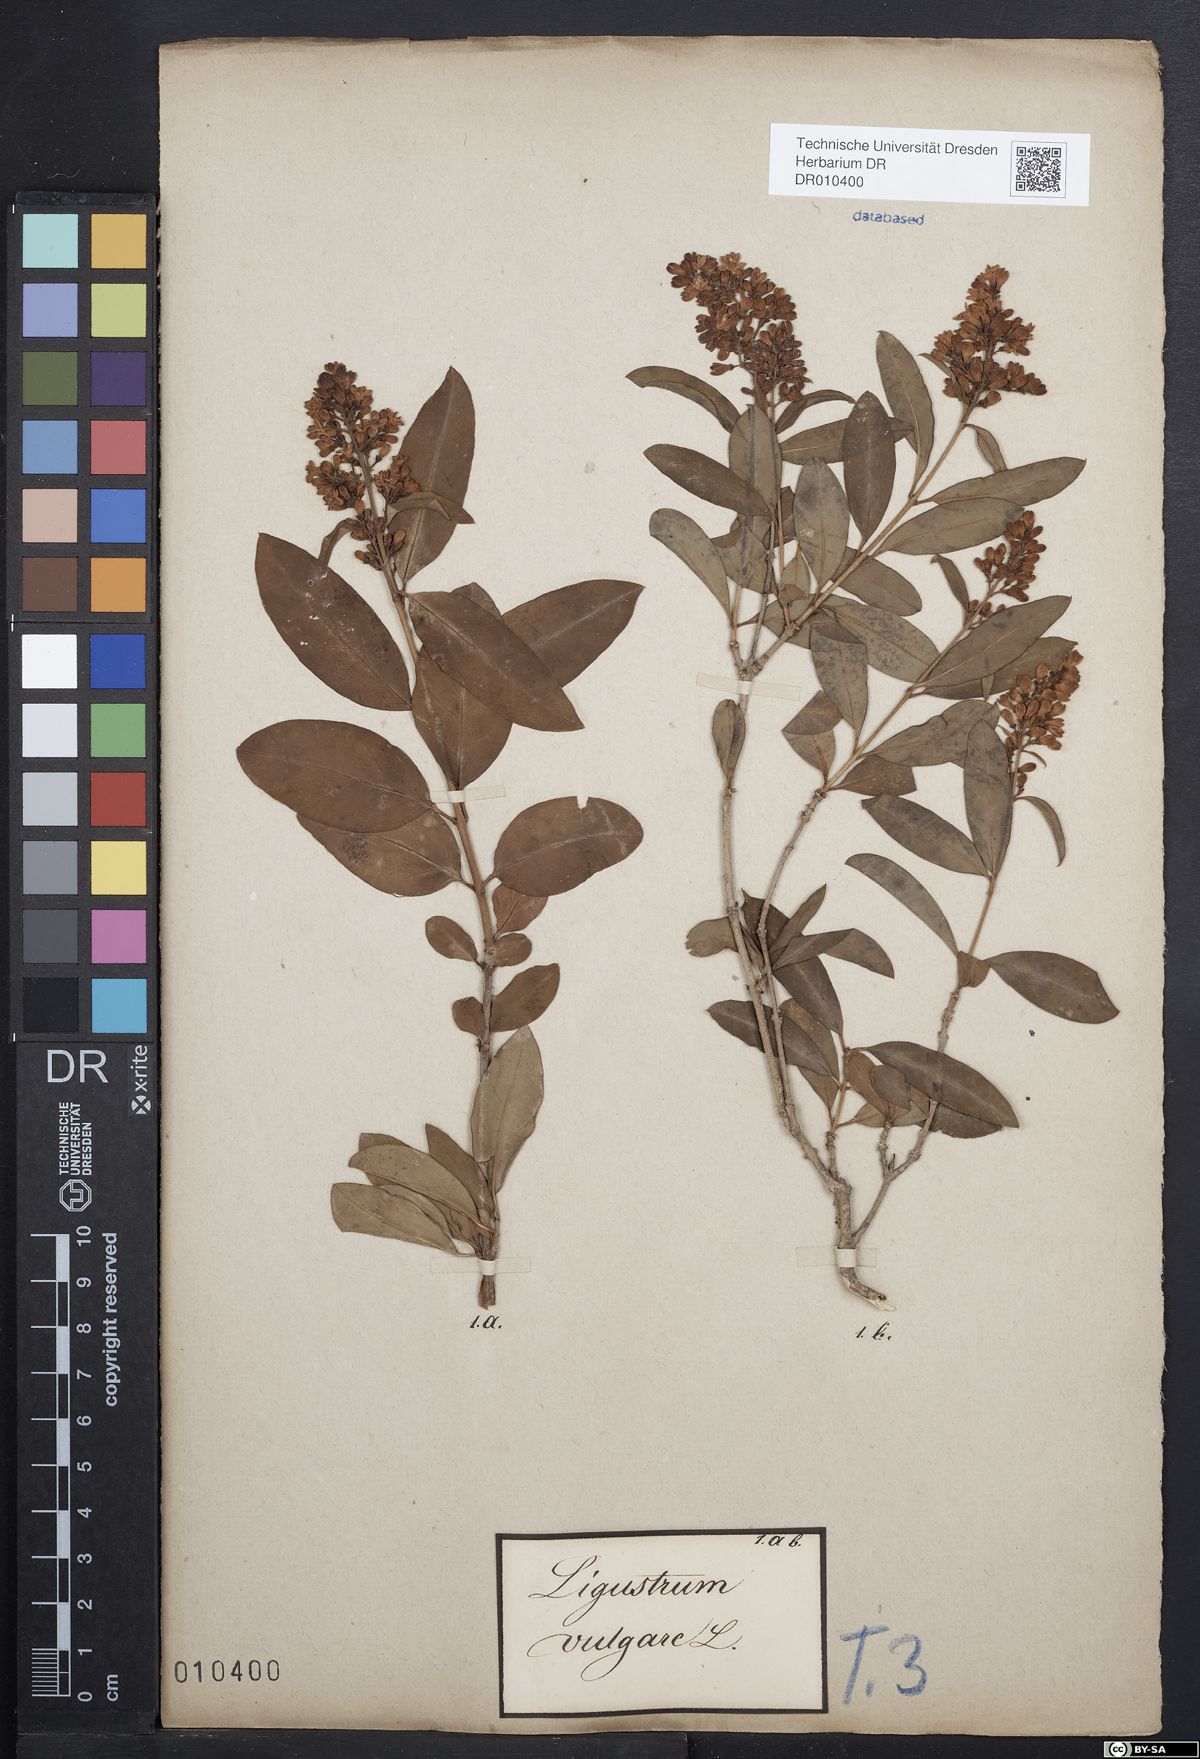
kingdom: Plantae
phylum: Tracheophyta
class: Magnoliopsida
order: Lamiales
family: Oleaceae
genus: Ligustrum
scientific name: Ligustrum vulgare
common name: Wild privet
